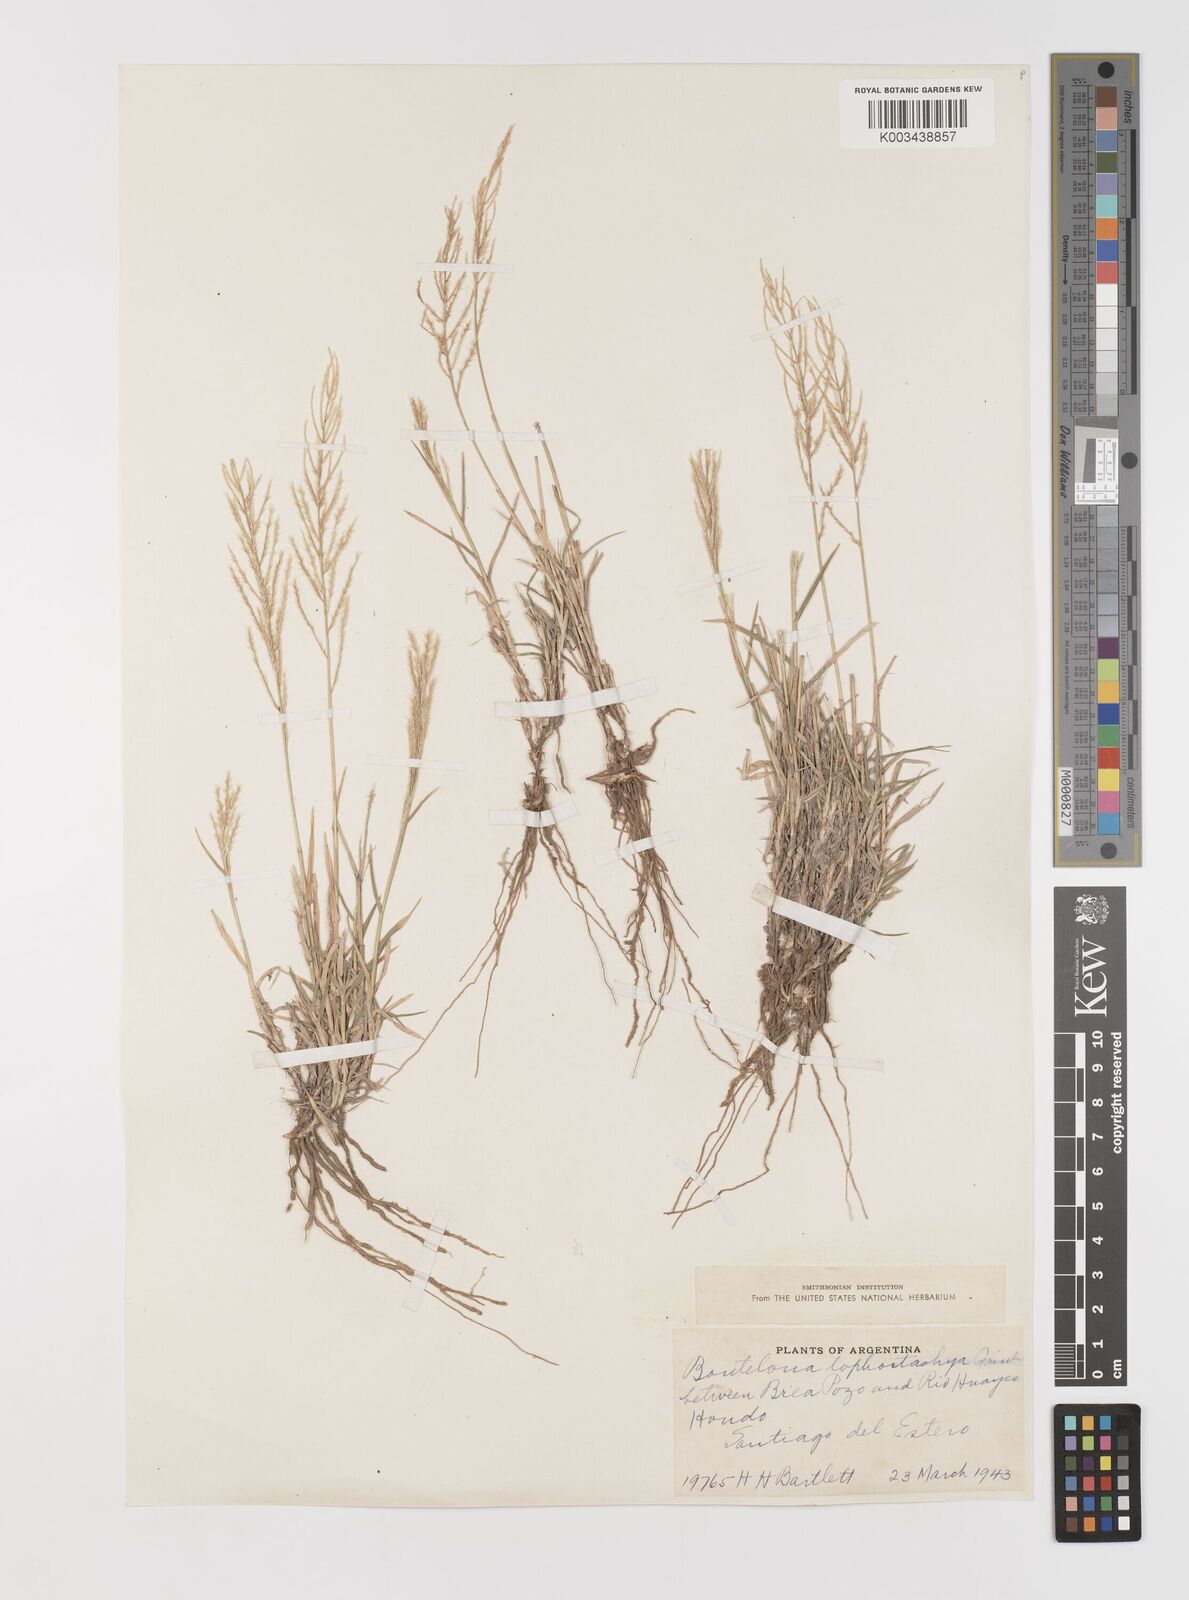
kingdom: Plantae
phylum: Tracheophyta
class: Liliopsida
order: Poales
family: Poaceae
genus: Neobouteloua
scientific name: Neobouteloua lophostachya
